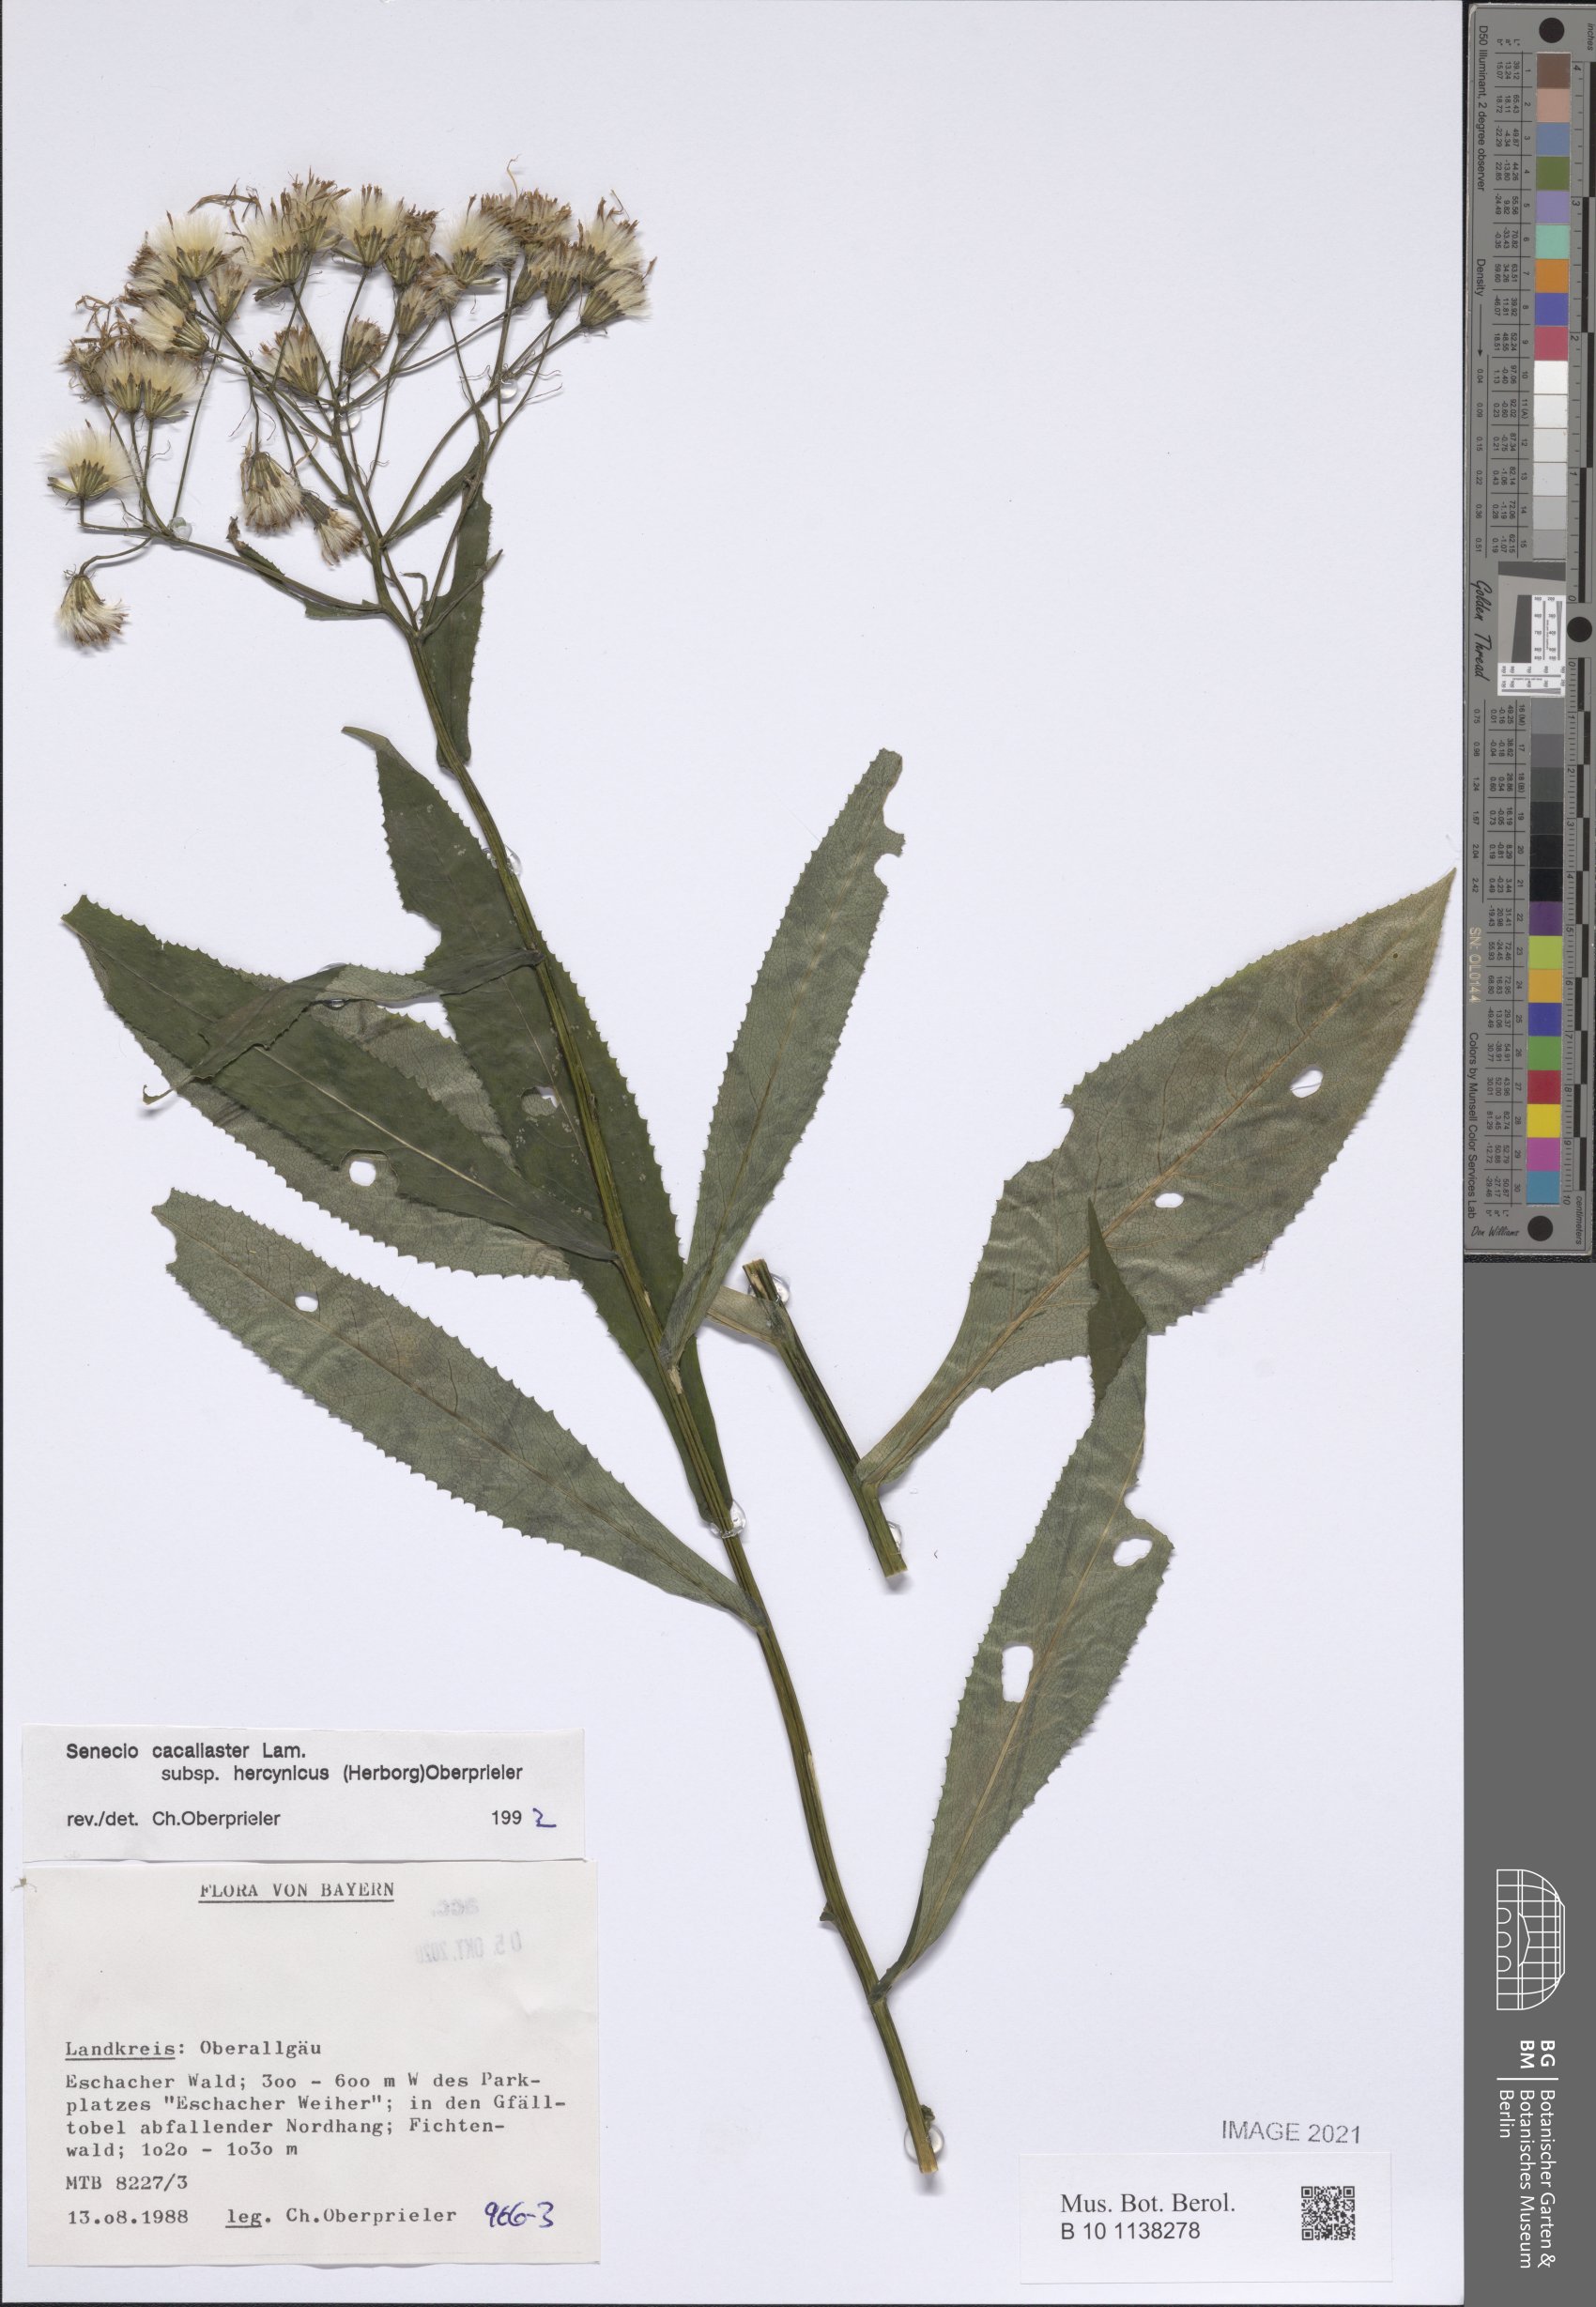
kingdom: Plantae
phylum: Tracheophyta
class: Magnoliopsida
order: Asterales
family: Asteraceae
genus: Senecio
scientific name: Senecio hercynicus
